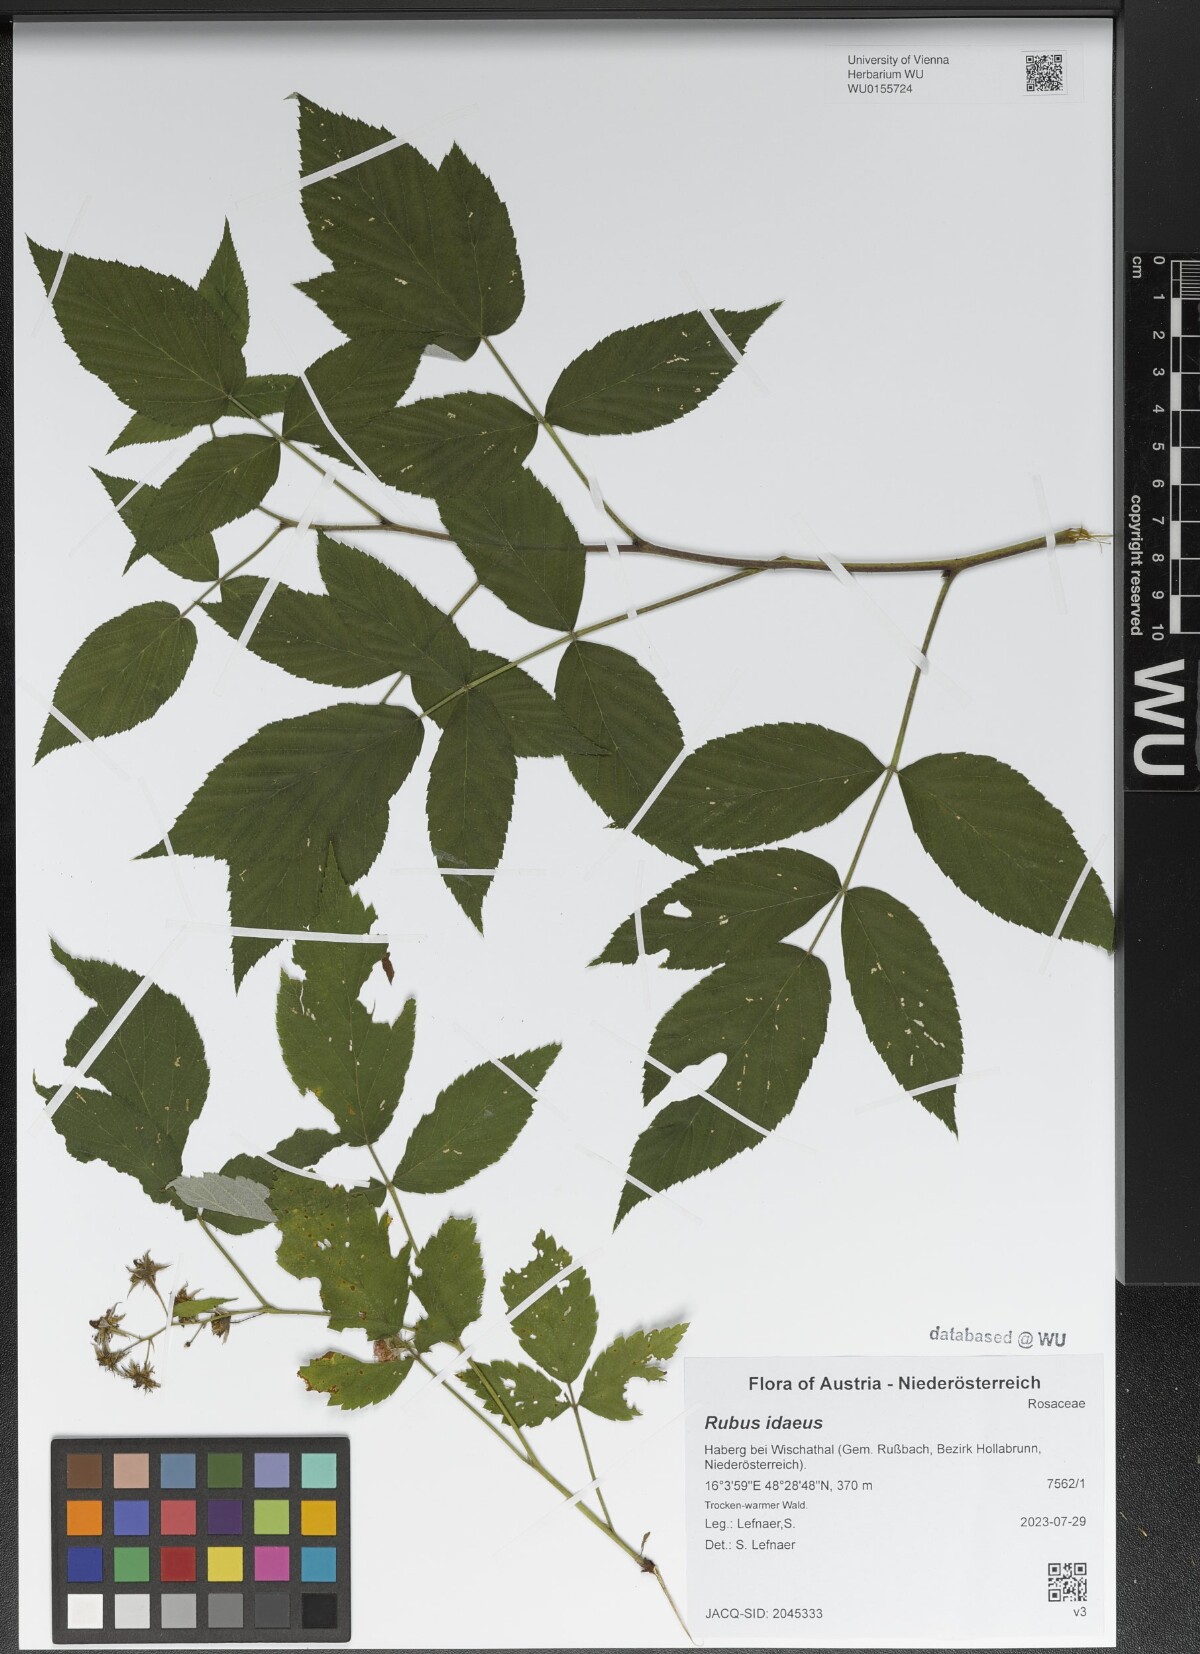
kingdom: Plantae
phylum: Tracheophyta
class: Magnoliopsida
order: Rosales
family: Rosaceae
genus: Rubus
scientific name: Rubus idaeus
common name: Raspberry
